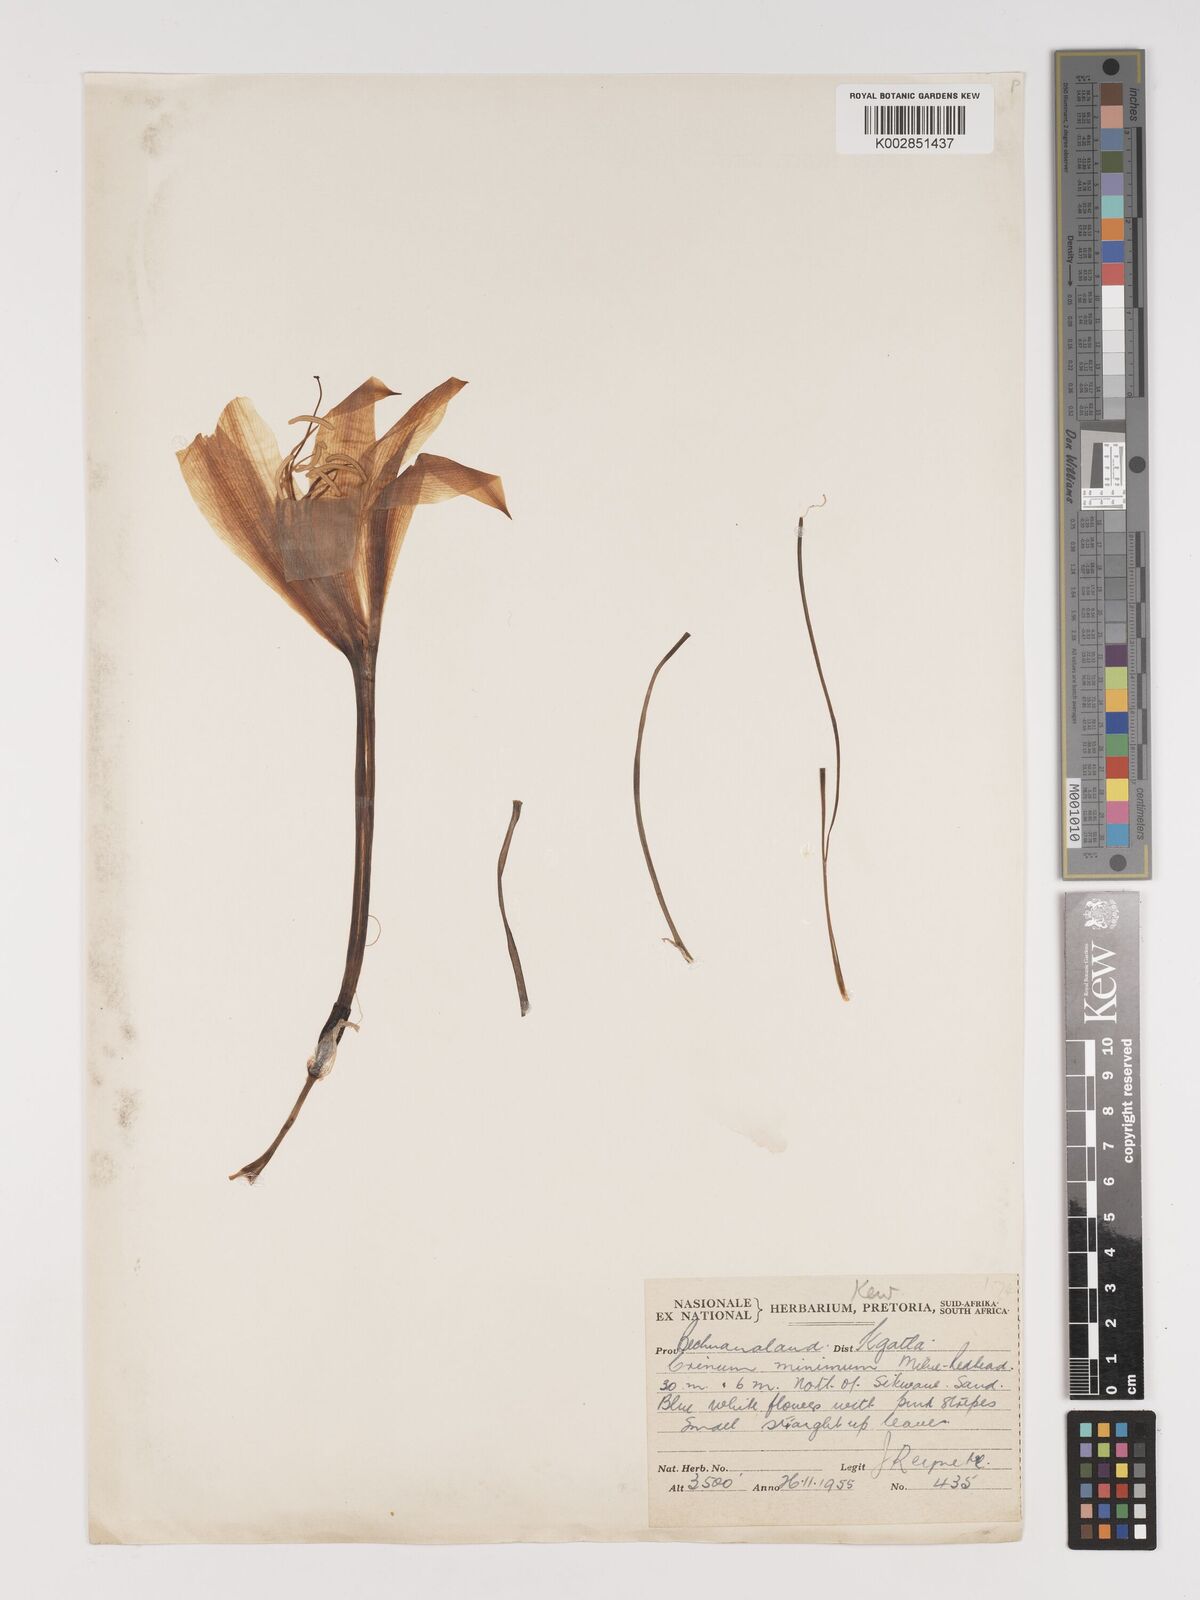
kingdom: Plantae
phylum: Tracheophyta
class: Liliopsida
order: Asparagales
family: Amaryllidaceae
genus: Crinum
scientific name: Crinum walteri
